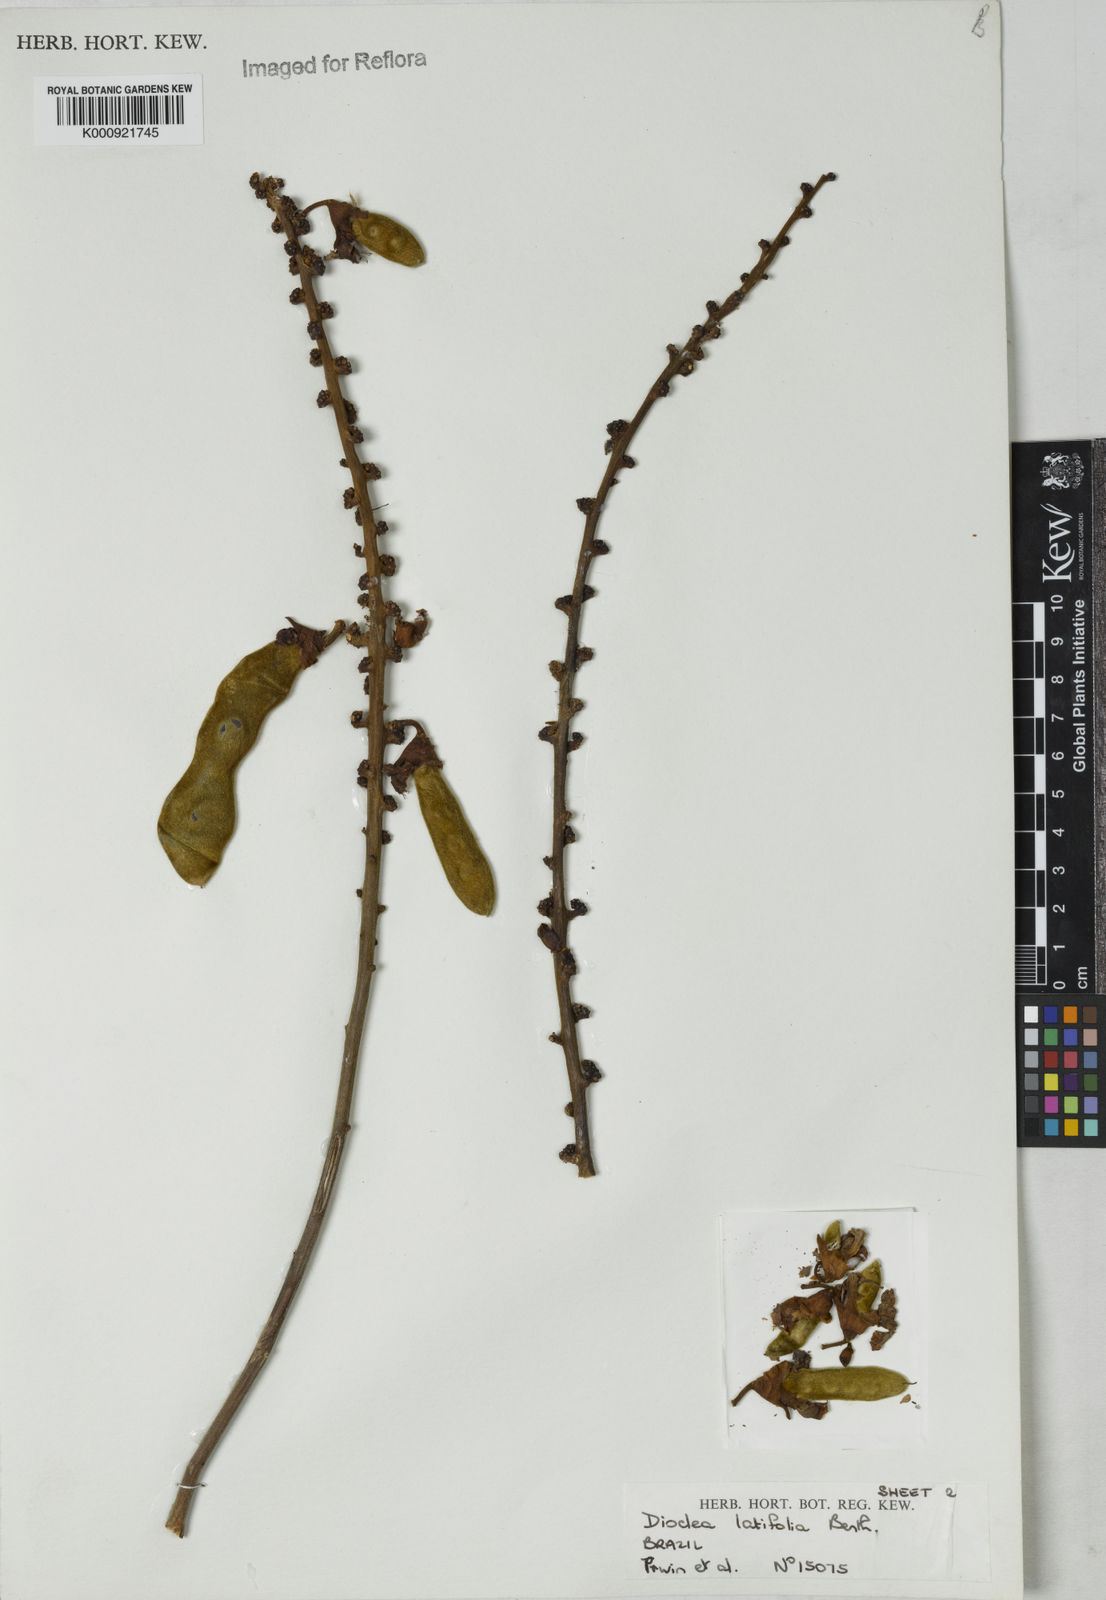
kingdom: Plantae
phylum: Tracheophyta
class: Magnoliopsida
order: Fabales
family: Fabaceae
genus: Macropsychanthus
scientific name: Macropsychanthus latifolius
